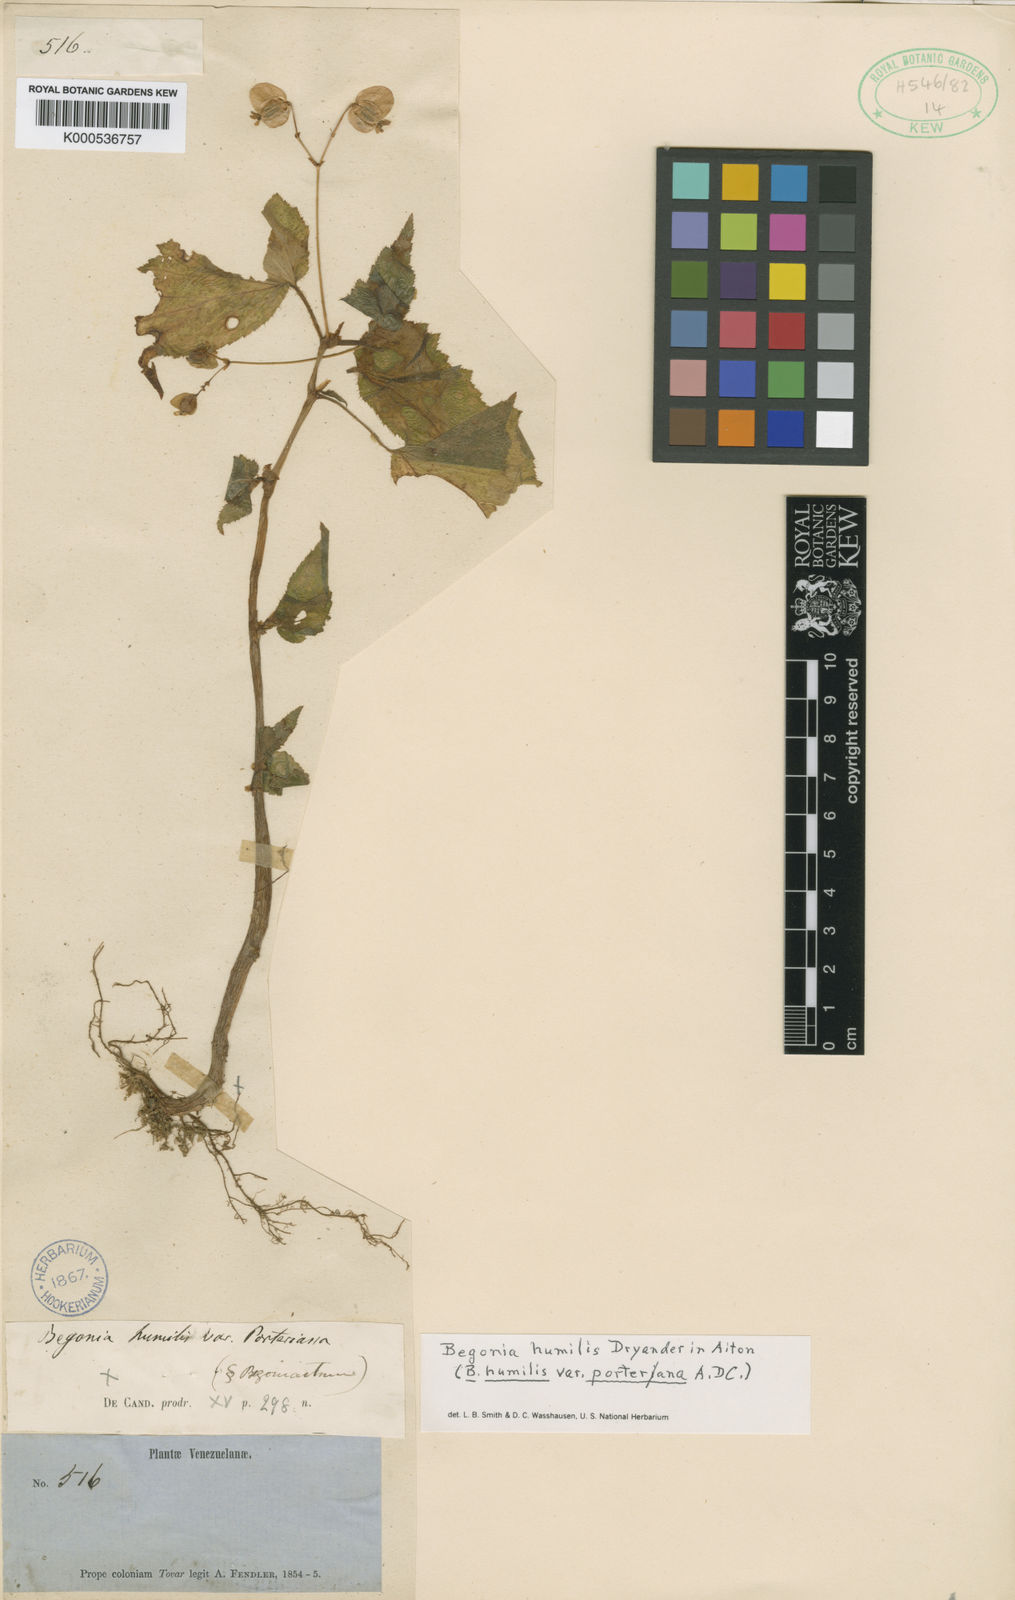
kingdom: Plantae
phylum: Tracheophyta
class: Magnoliopsida
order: Cucurbitales
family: Begoniaceae
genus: Begonia
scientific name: Begonia
